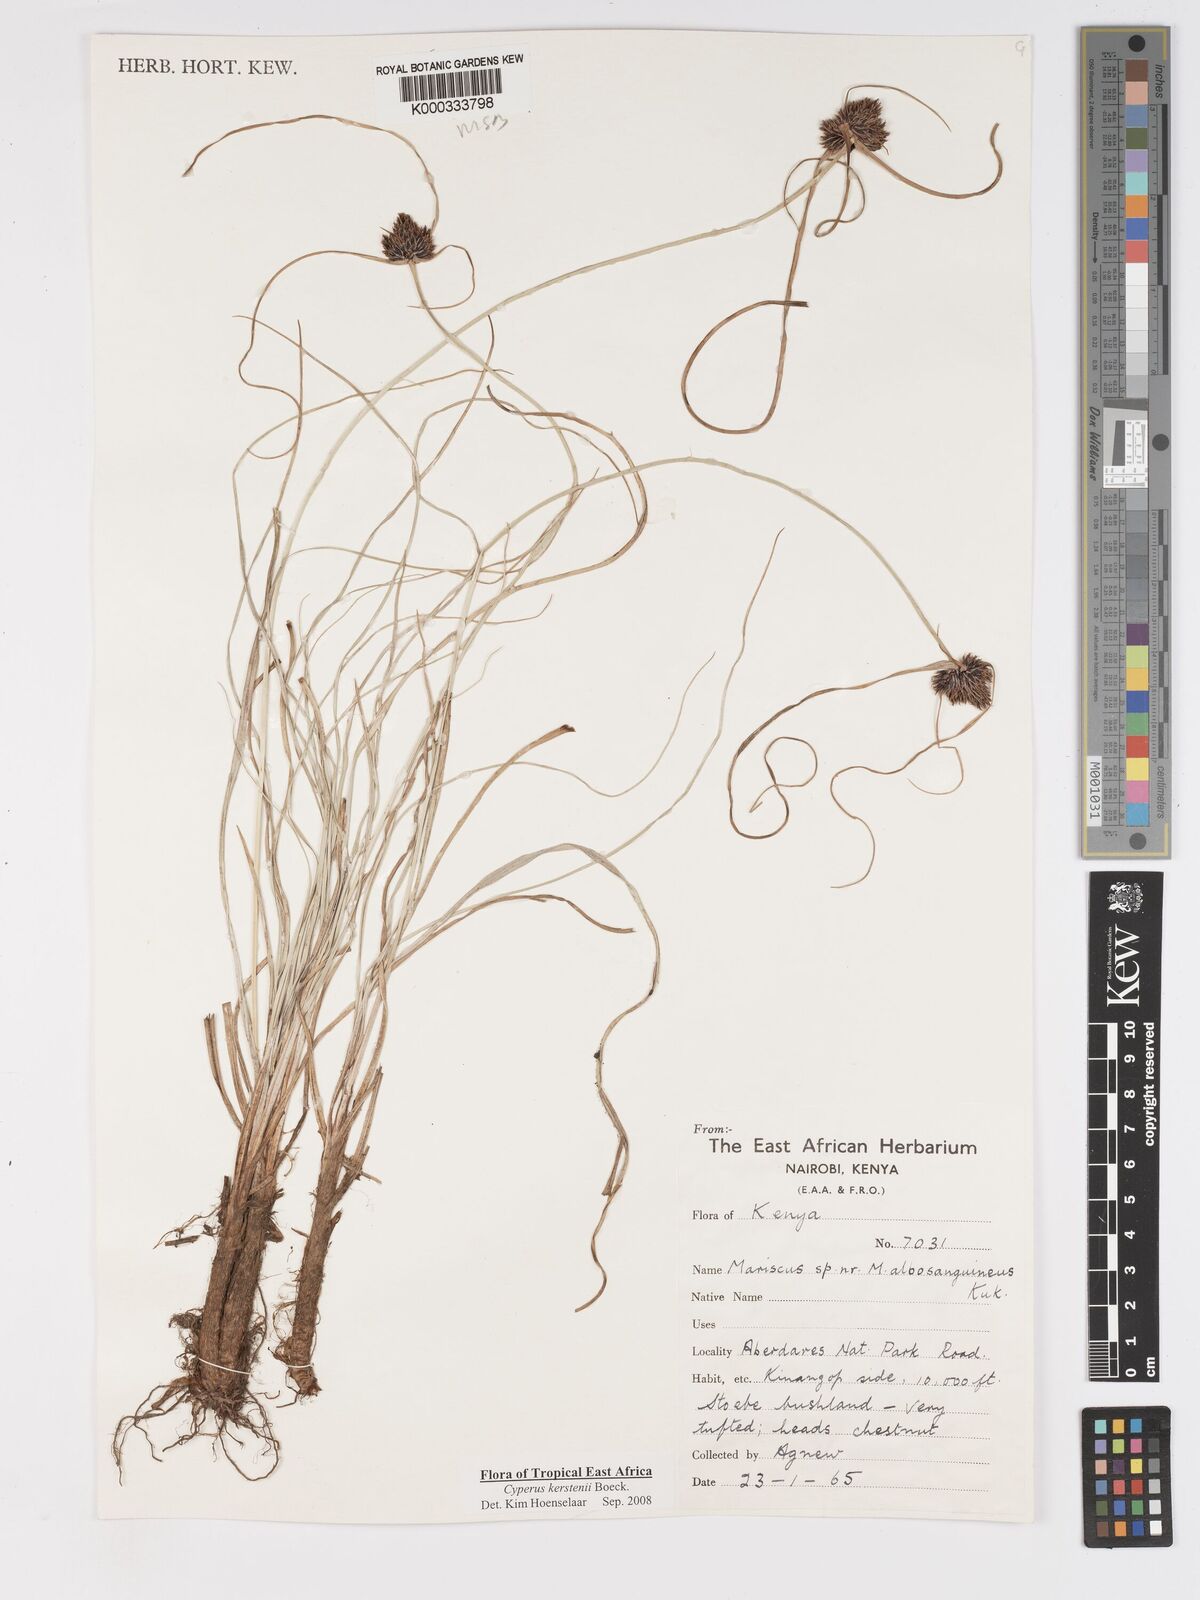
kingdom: Plantae
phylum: Tracheophyta
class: Liliopsida
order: Poales
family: Cyperaceae
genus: Cyperus
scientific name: Cyperus kerstenii
